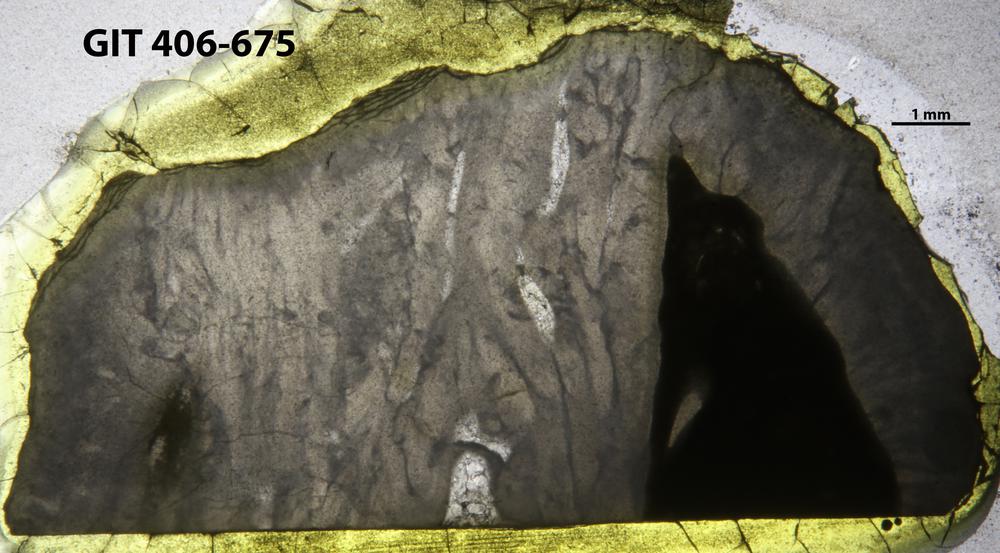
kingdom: Animalia
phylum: Cnidaria
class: Anthozoa
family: Streptelasmatidae
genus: Kenophyllum
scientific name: Kenophyllum
